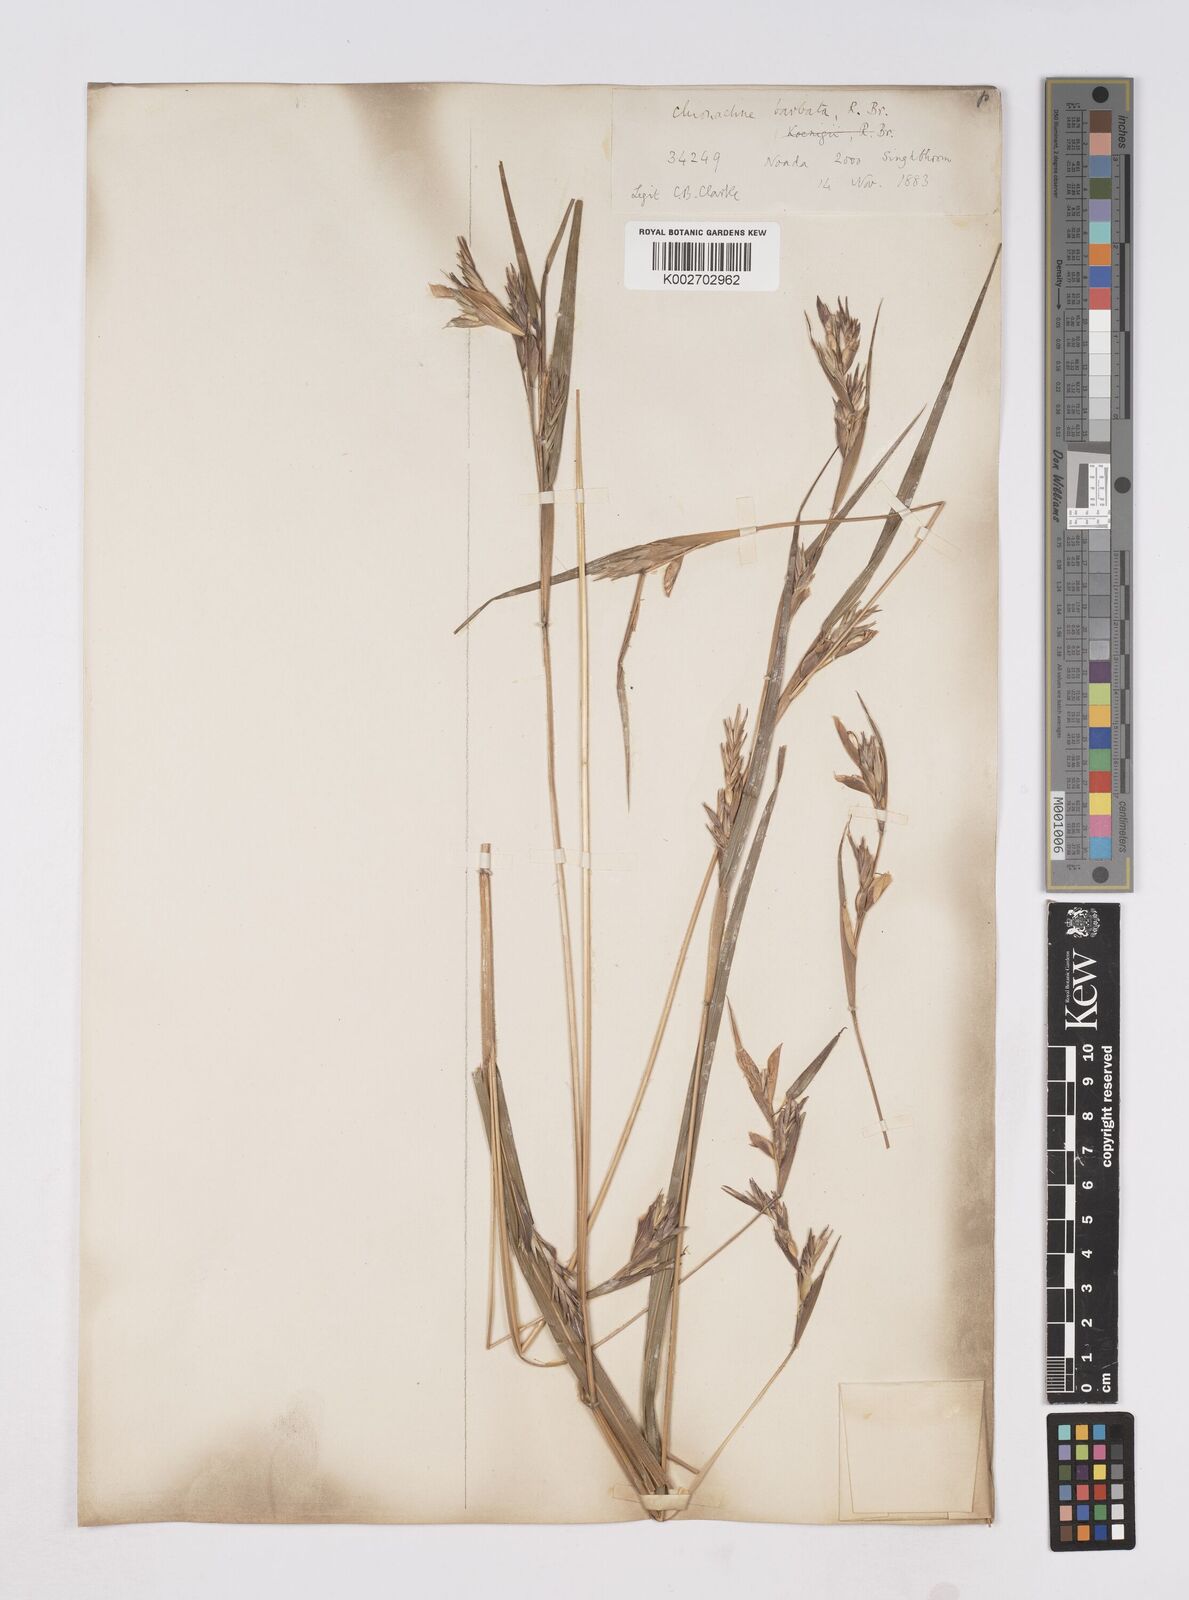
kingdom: Plantae
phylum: Tracheophyta
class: Liliopsida
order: Poales
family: Poaceae
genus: Polytoca
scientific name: Polytoca gigantea
